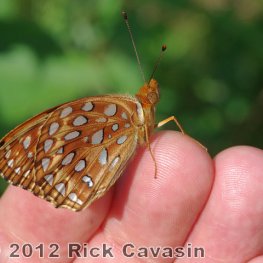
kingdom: Animalia
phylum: Arthropoda
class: Insecta
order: Lepidoptera
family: Nymphalidae
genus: Speyeria
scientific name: Speyeria aphrodite
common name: Aphrodite Fritillary
